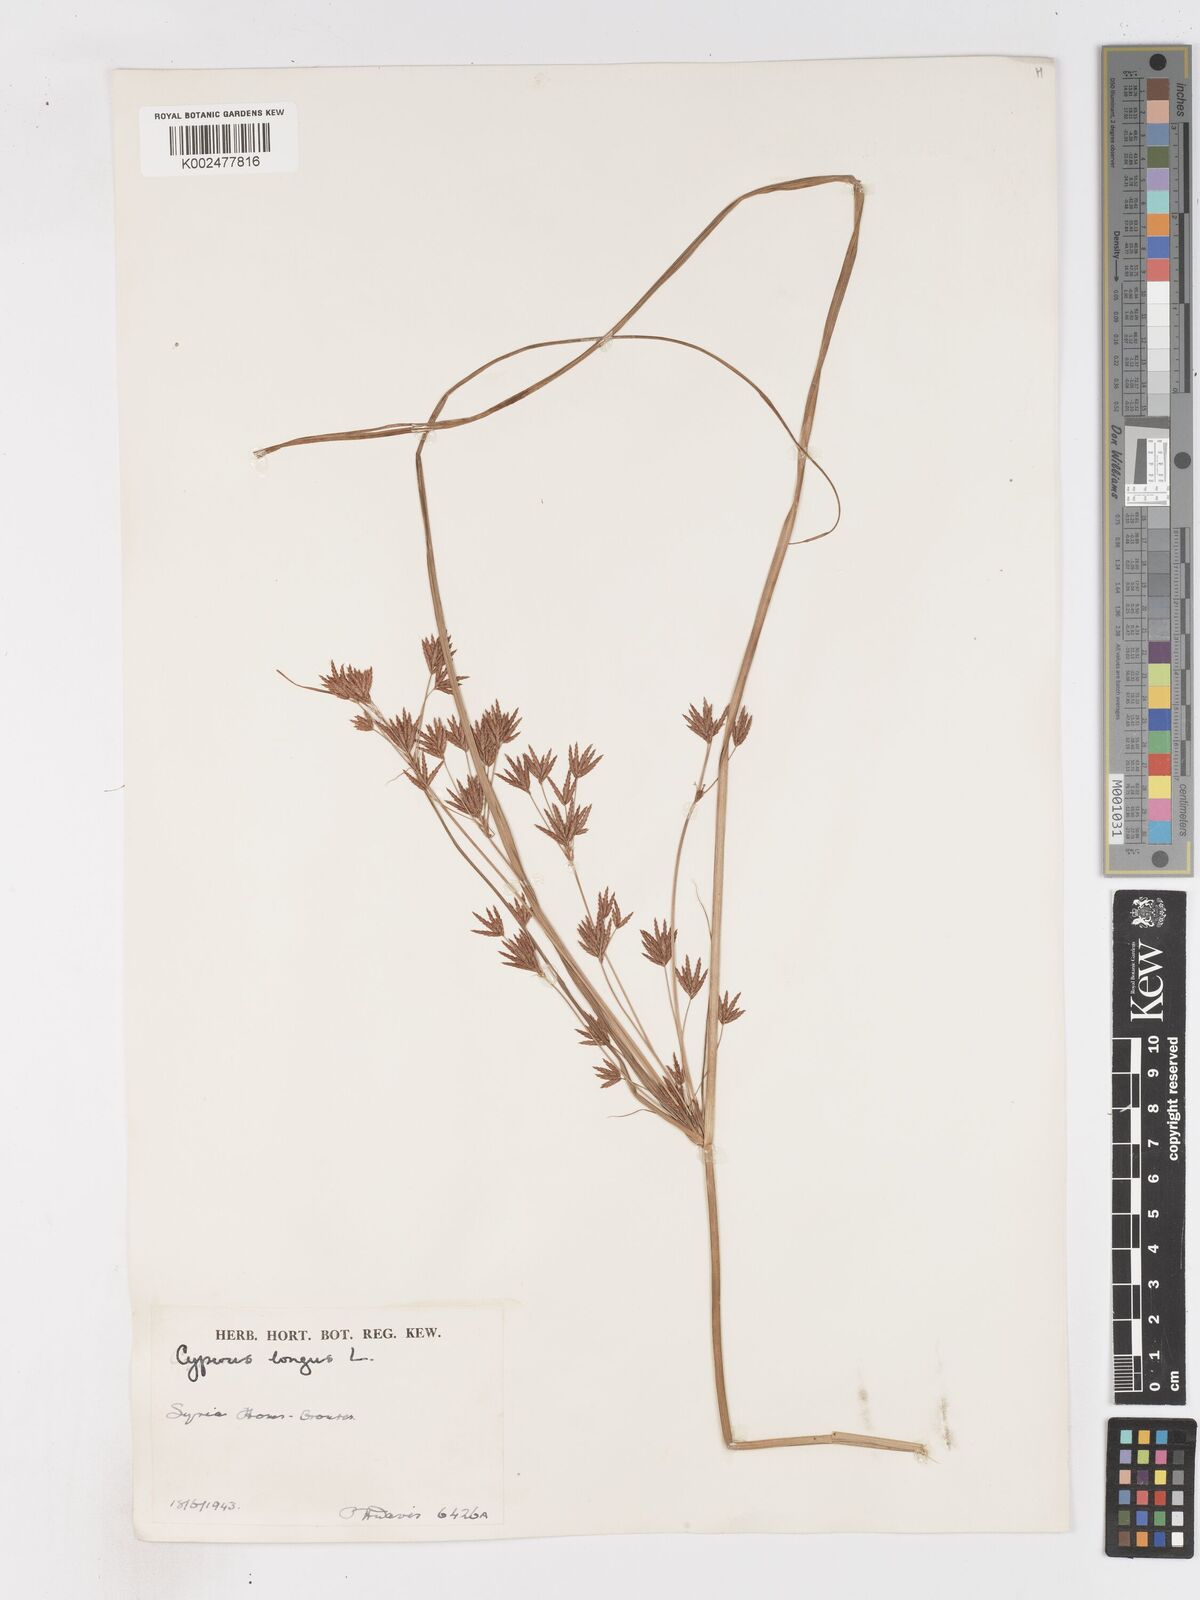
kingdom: Plantae
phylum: Tracheophyta
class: Liliopsida
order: Poales
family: Cyperaceae
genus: Cyperus
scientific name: Cyperus longus
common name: Galingale
